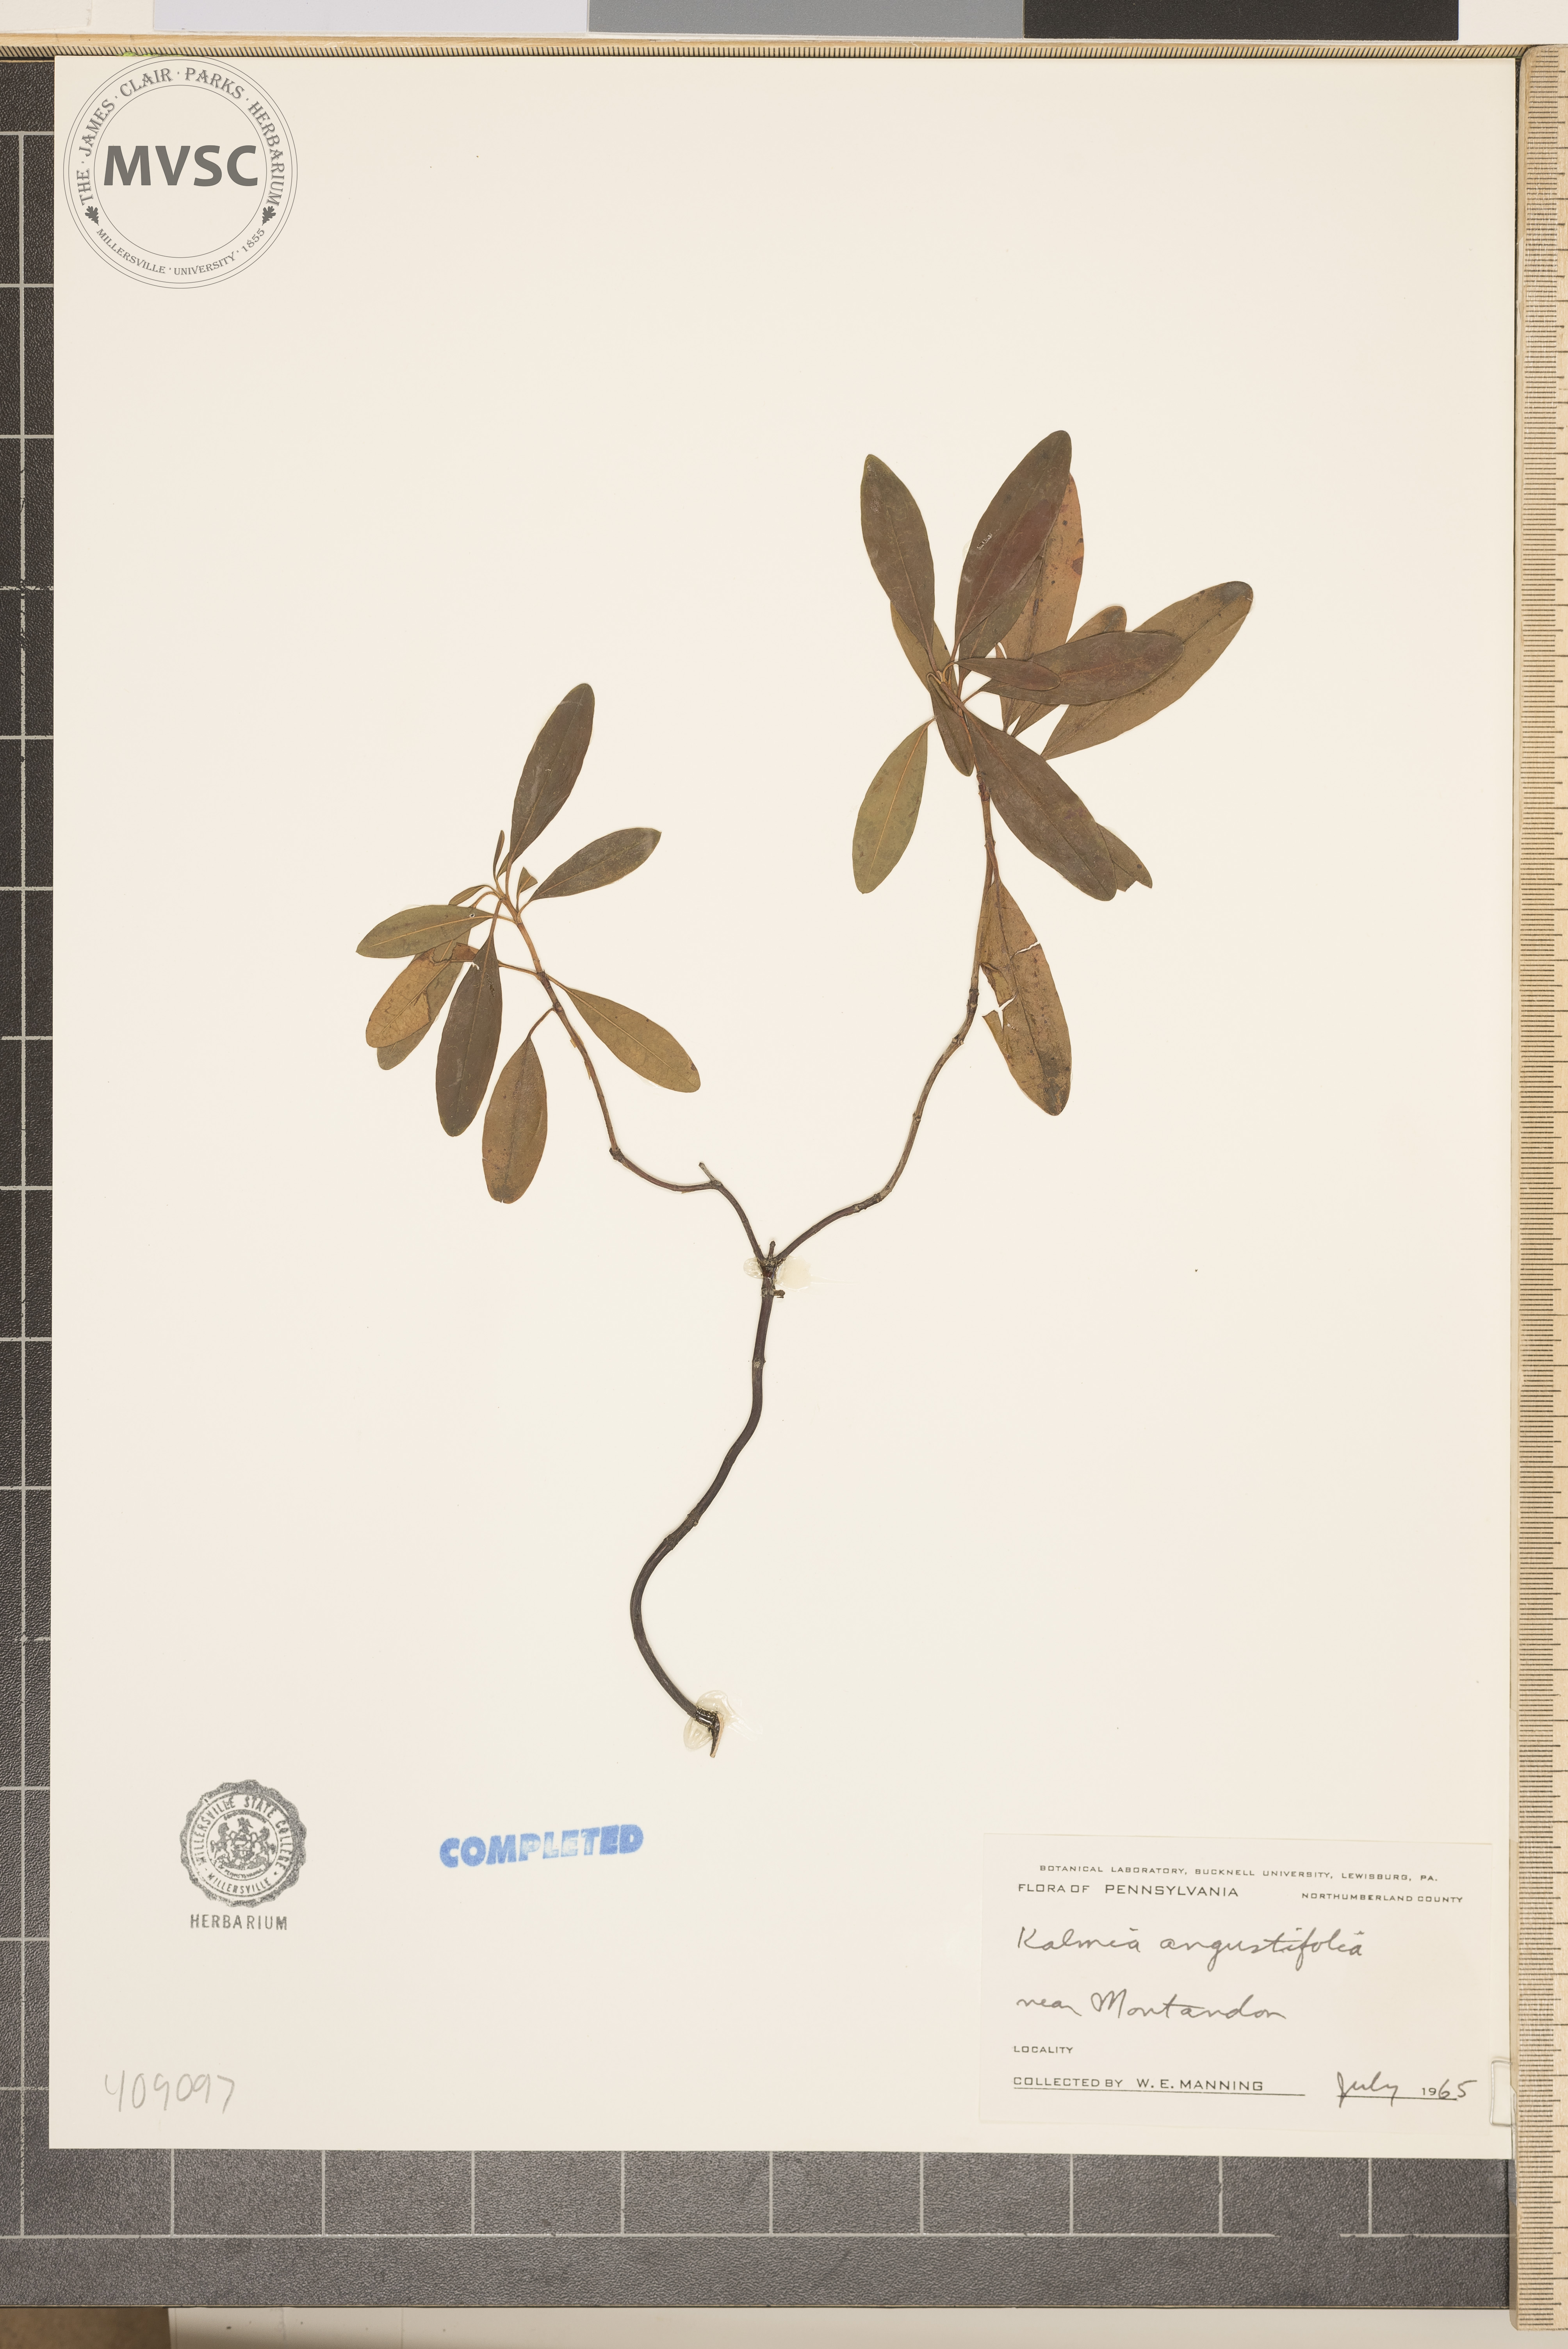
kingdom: Plantae
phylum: Tracheophyta
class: Magnoliopsida
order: Ericales
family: Ericaceae
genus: Kalmia
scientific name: Kalmia angustifolia
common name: Sheep-laurel
